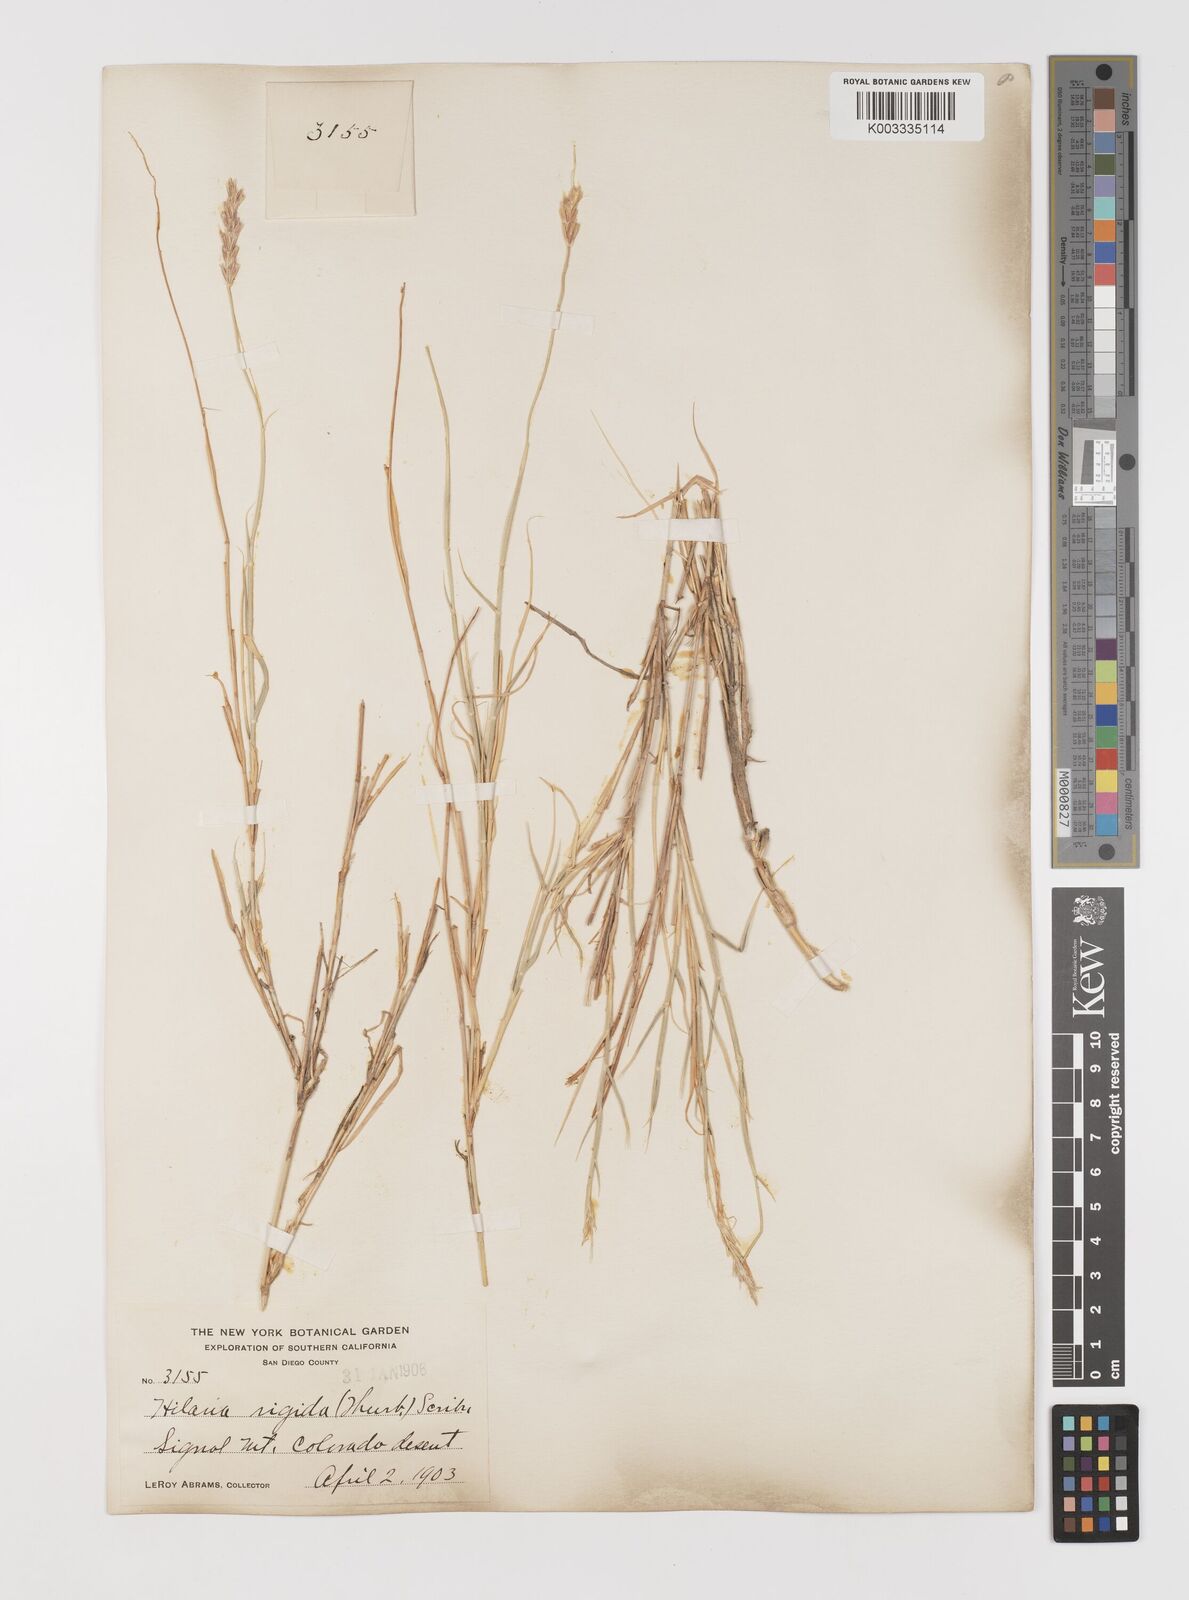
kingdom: Plantae
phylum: Tracheophyta
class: Liliopsida
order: Poales
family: Poaceae
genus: Hilaria
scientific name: Hilaria rigida
